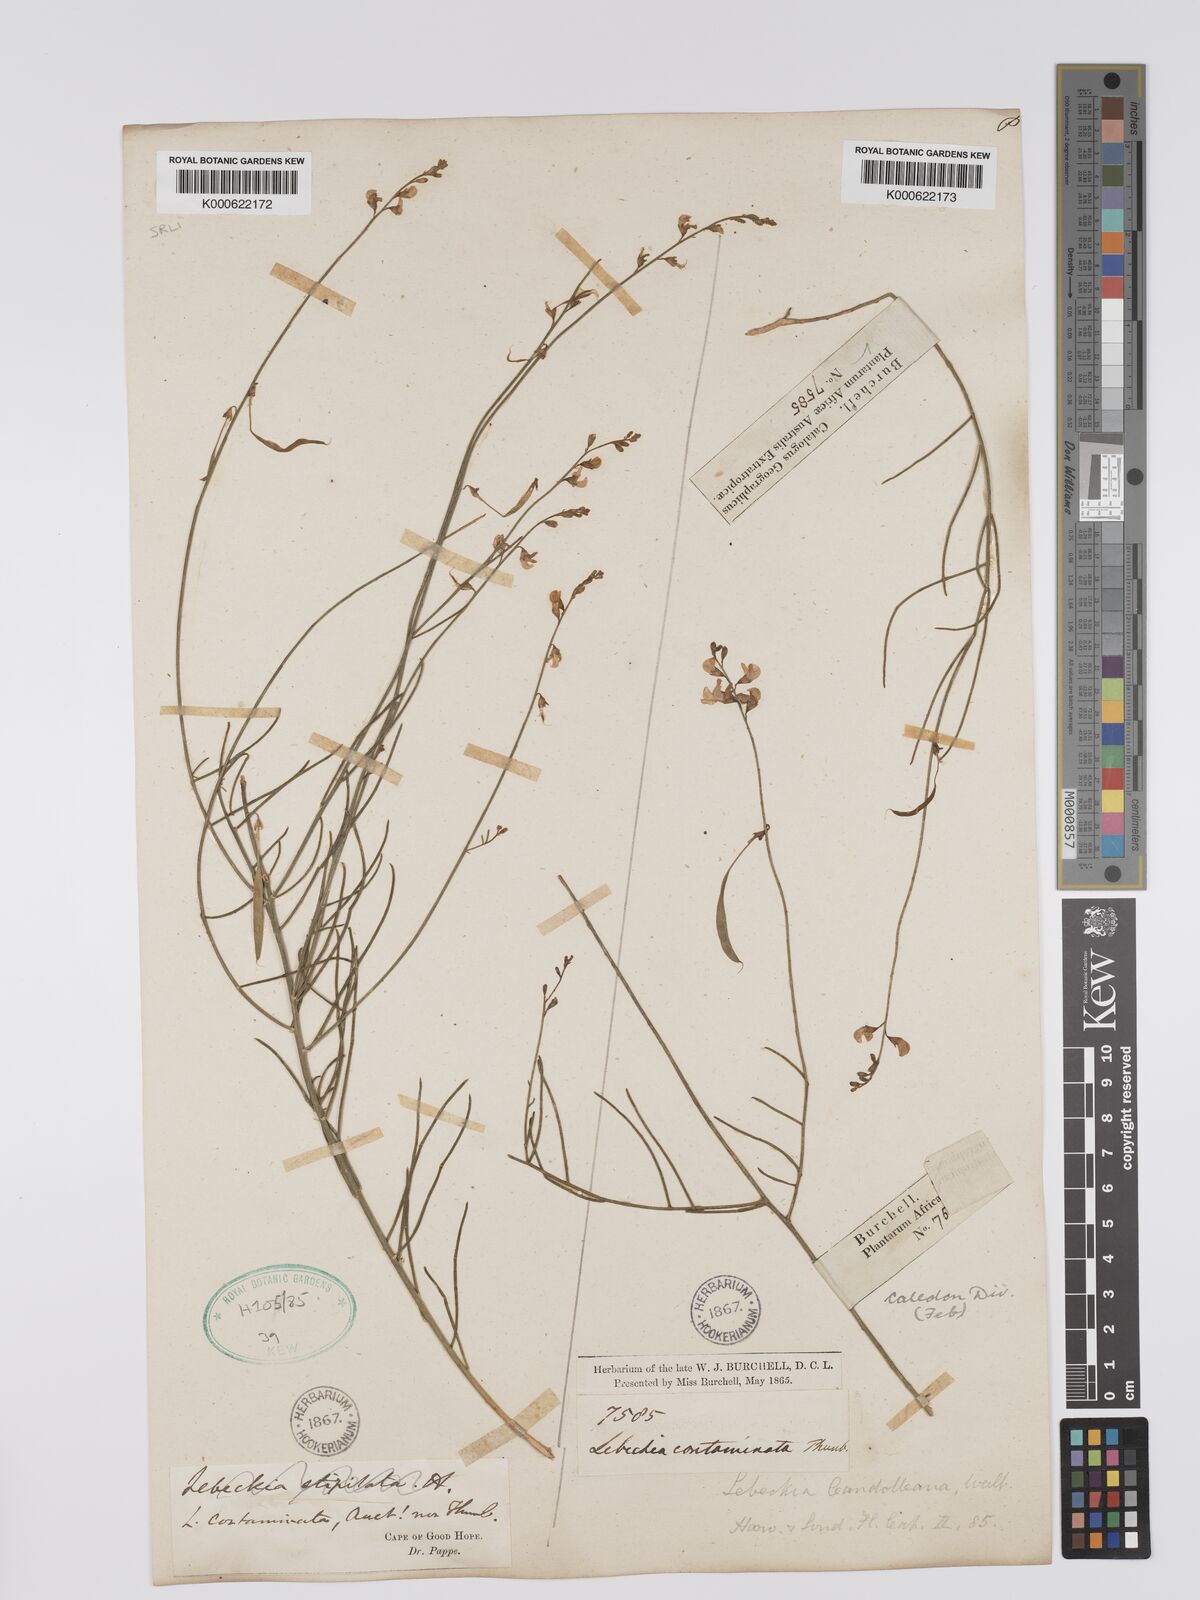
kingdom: Plantae
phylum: Tracheophyta
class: Magnoliopsida
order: Fabales
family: Fabaceae
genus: Lebeckia
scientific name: Lebeckia contaminata
